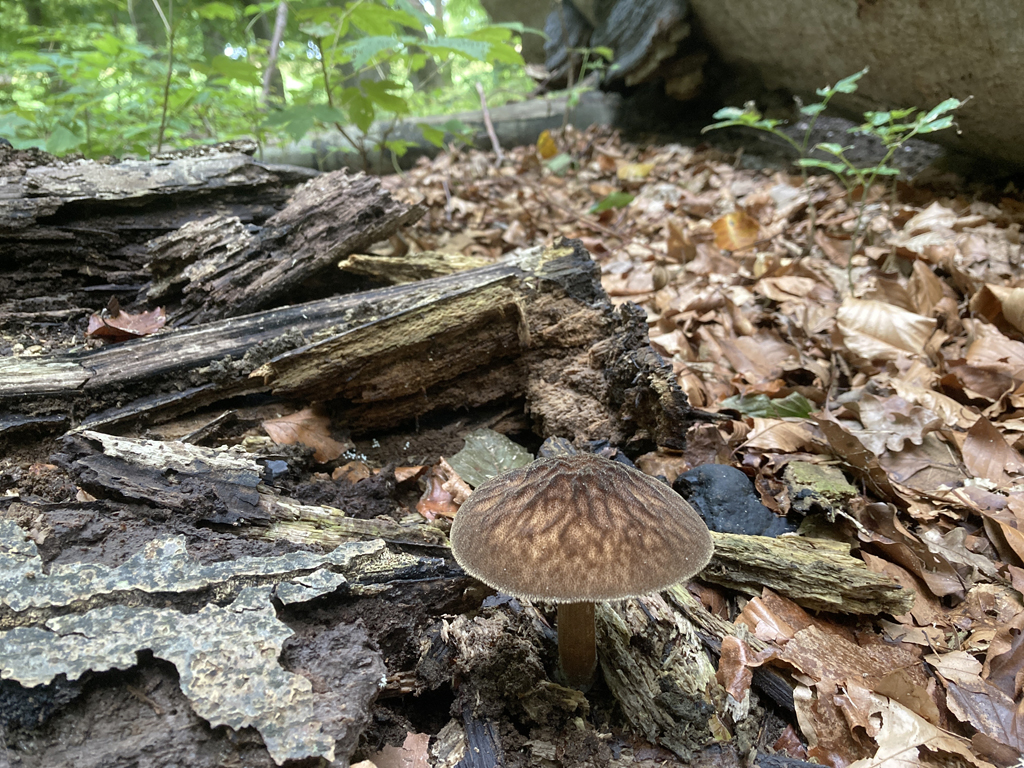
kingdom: Fungi
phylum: Basidiomycota
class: Agaricomycetes
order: Agaricales
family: Pluteaceae
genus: Pluteus
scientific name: Pluteus umbrosus
